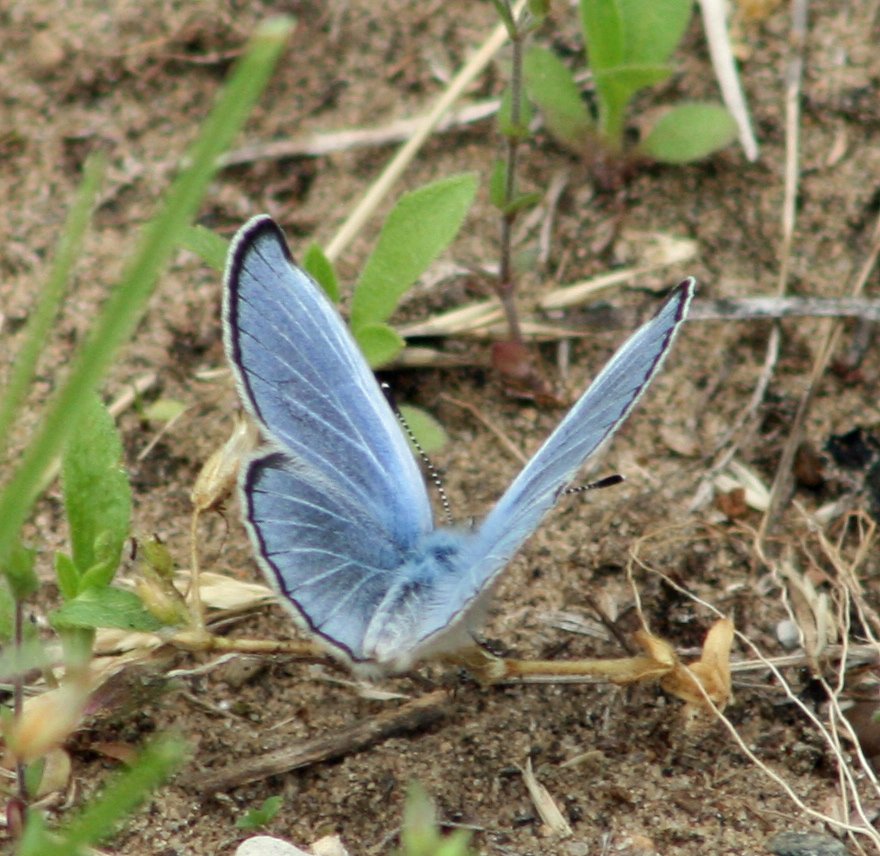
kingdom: Animalia
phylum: Arthropoda
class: Insecta
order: Lepidoptera
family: Lycaenidae
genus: Glaucopsyche
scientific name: Glaucopsyche lygdamus
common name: Silvery Blue
